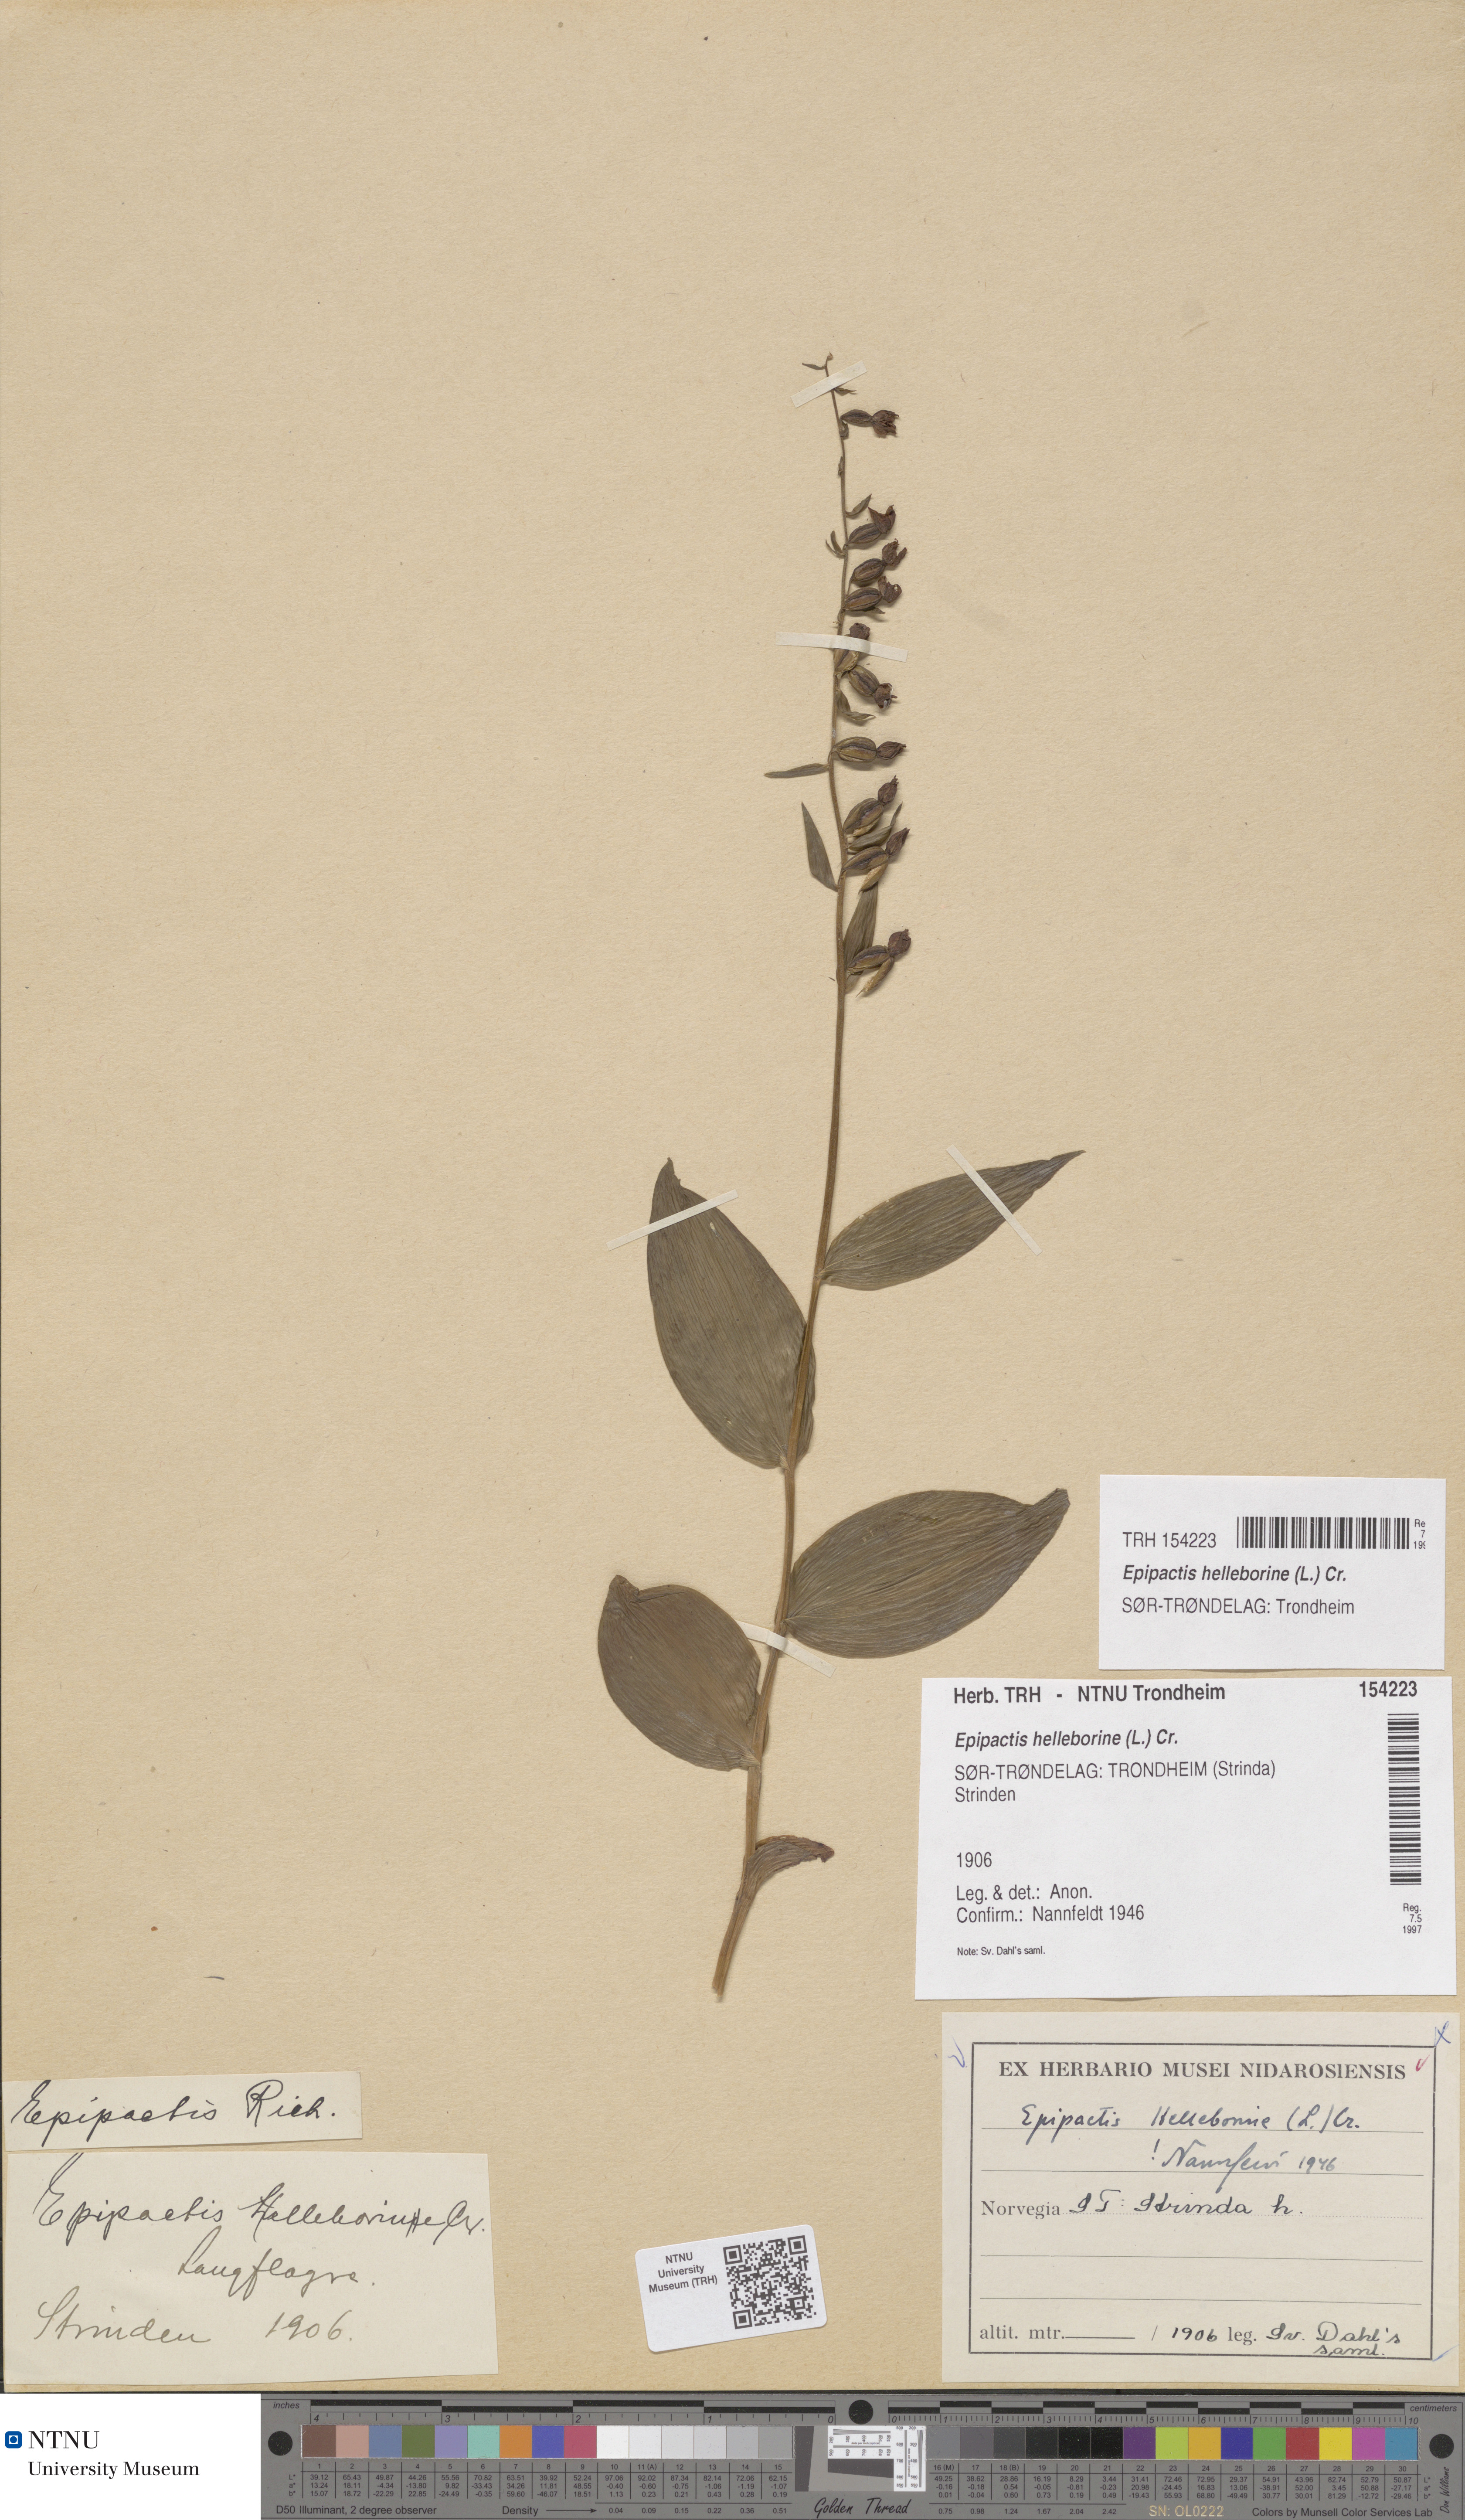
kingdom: Plantae
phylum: Tracheophyta
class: Liliopsida
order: Asparagales
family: Orchidaceae
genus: Epipactis
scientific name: Epipactis helleborine
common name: Broad-leaved helleborine
